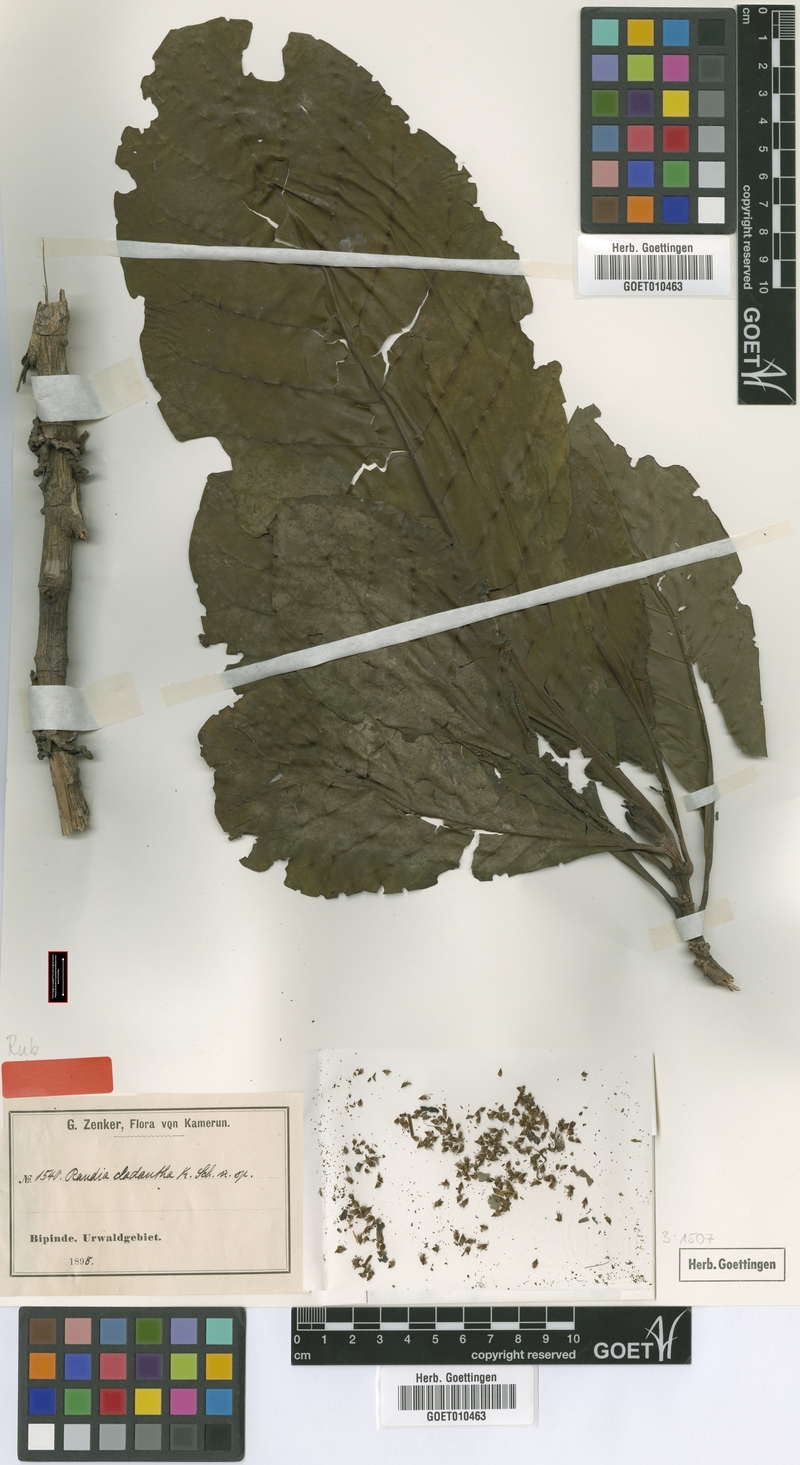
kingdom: Plantae
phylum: Tracheophyta
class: Magnoliopsida
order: Gentianales
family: Rubiaceae
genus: Aoranthe
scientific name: Aoranthe cladantha
